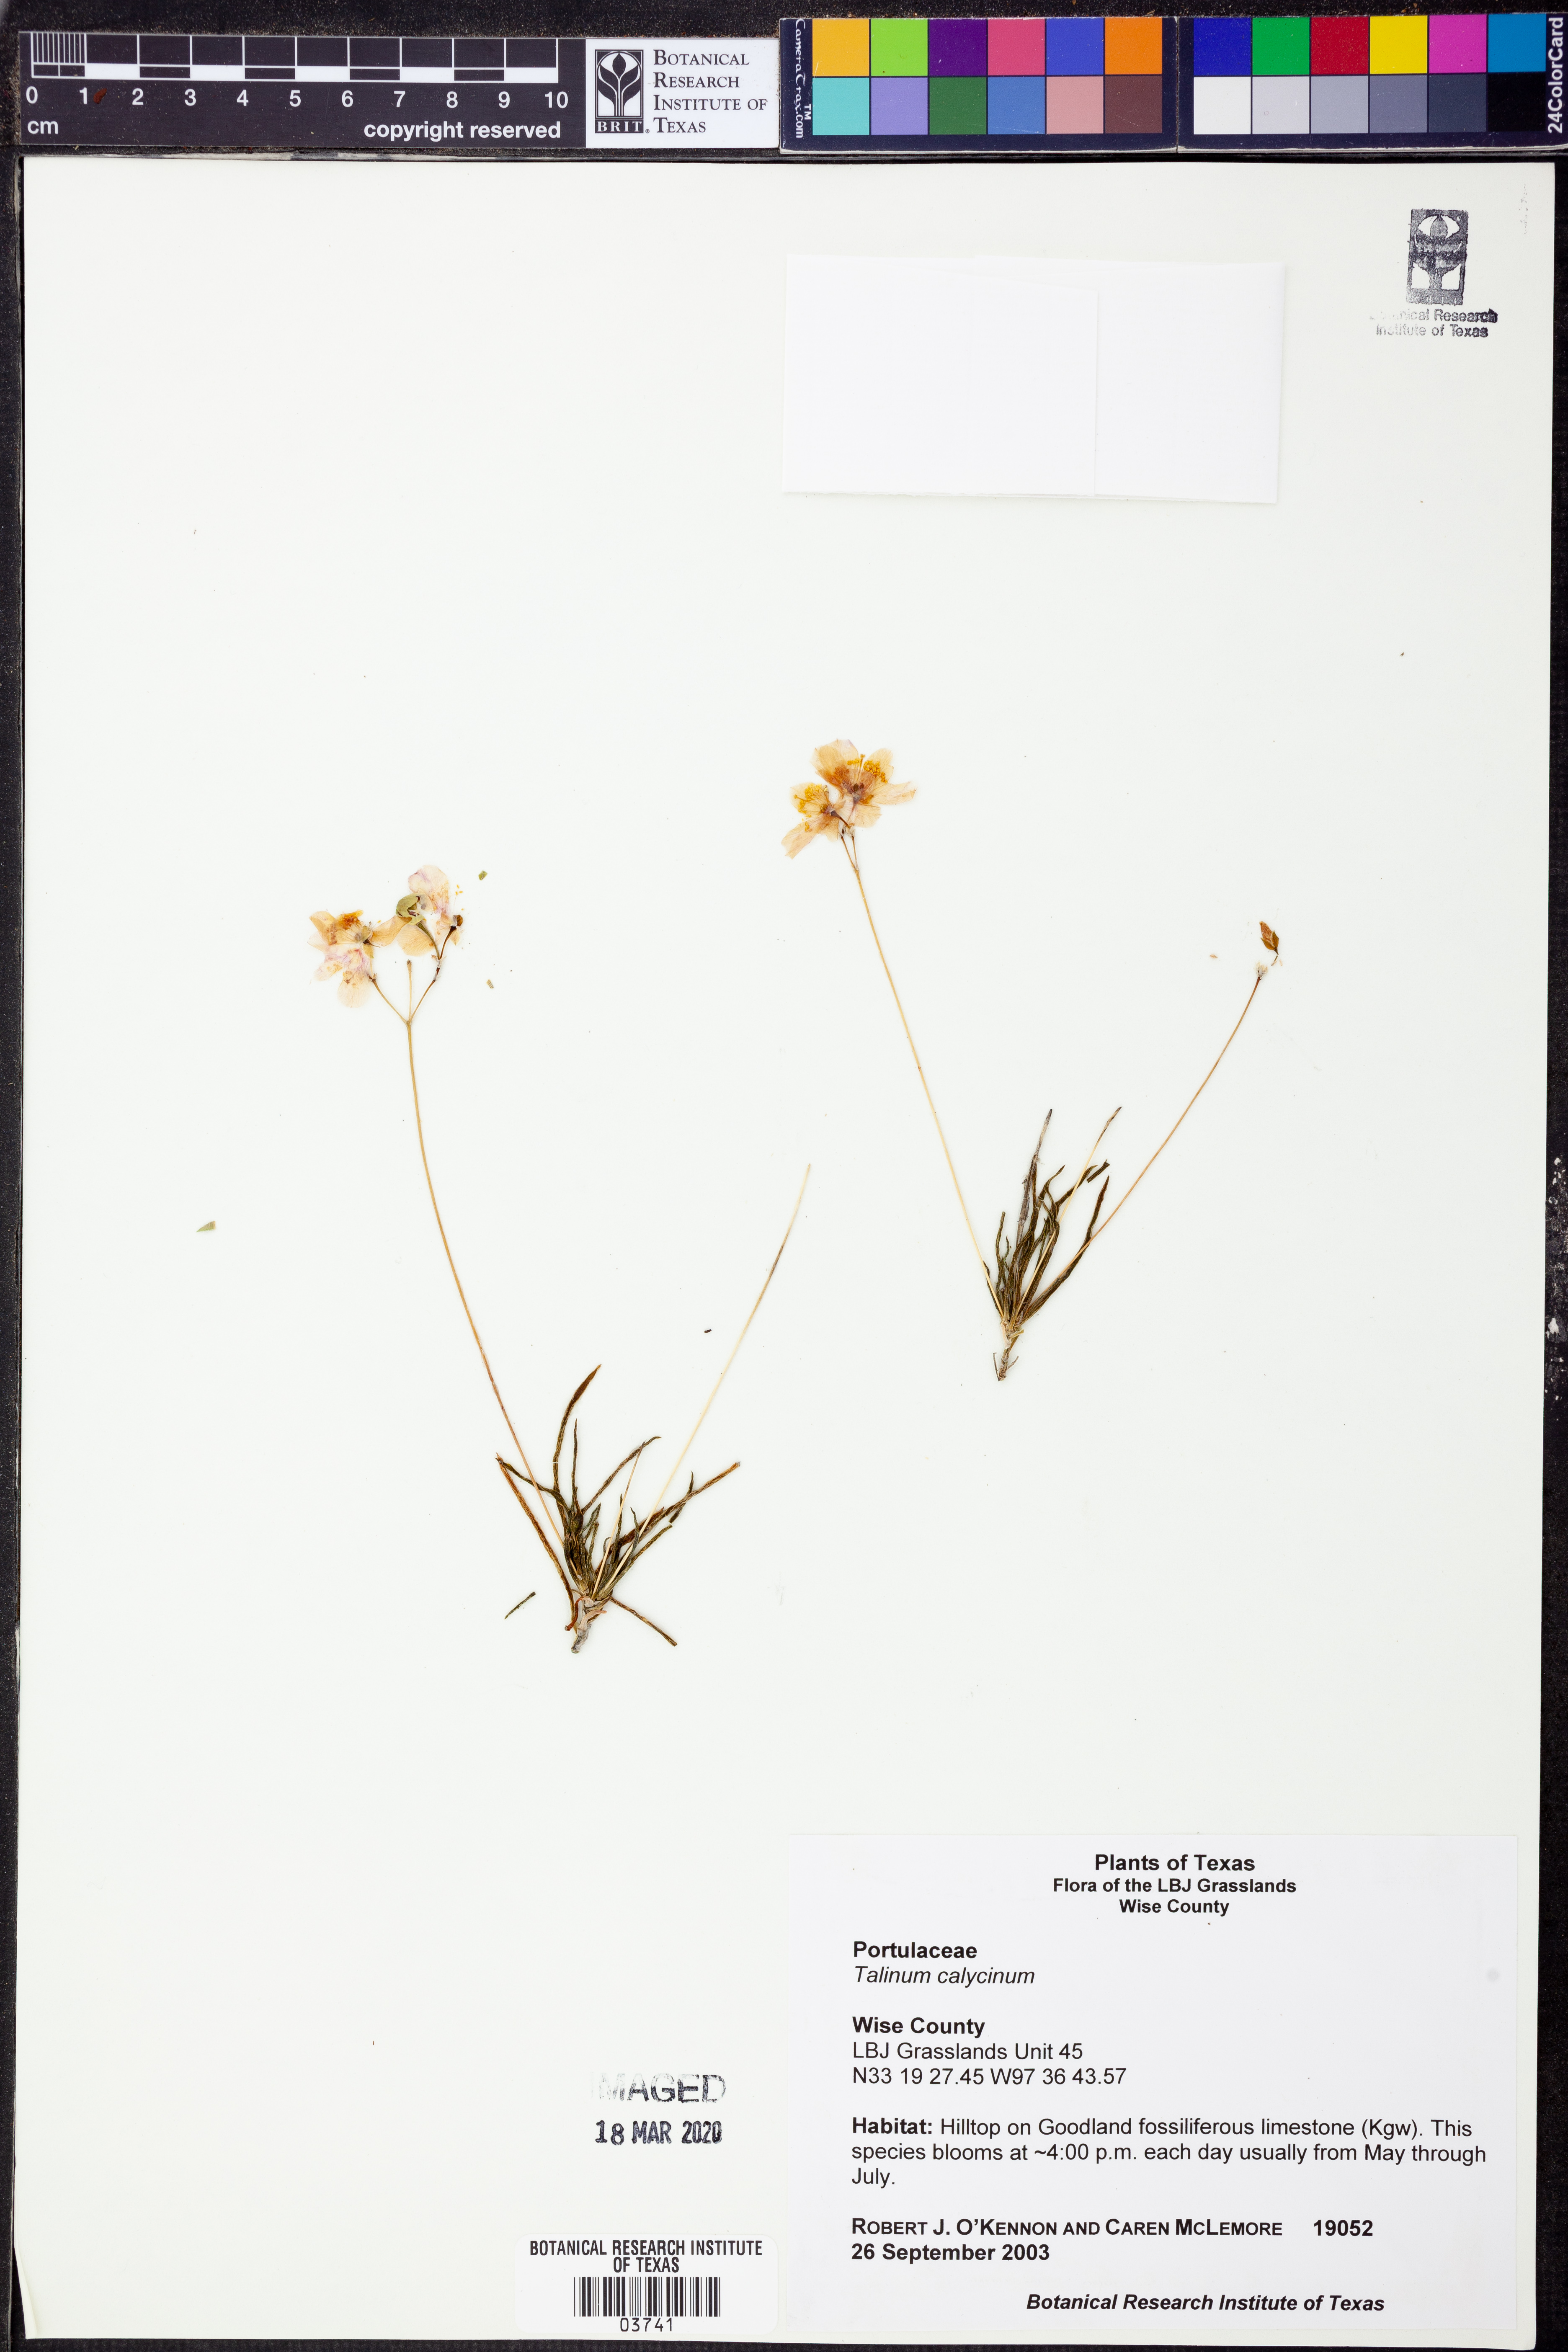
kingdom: Plantae
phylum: Tracheophyta
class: Magnoliopsida
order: Caryophyllales
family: Montiaceae
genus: Phemeranthus
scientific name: Phemeranthus calycinus
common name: Largeflower fameflower
